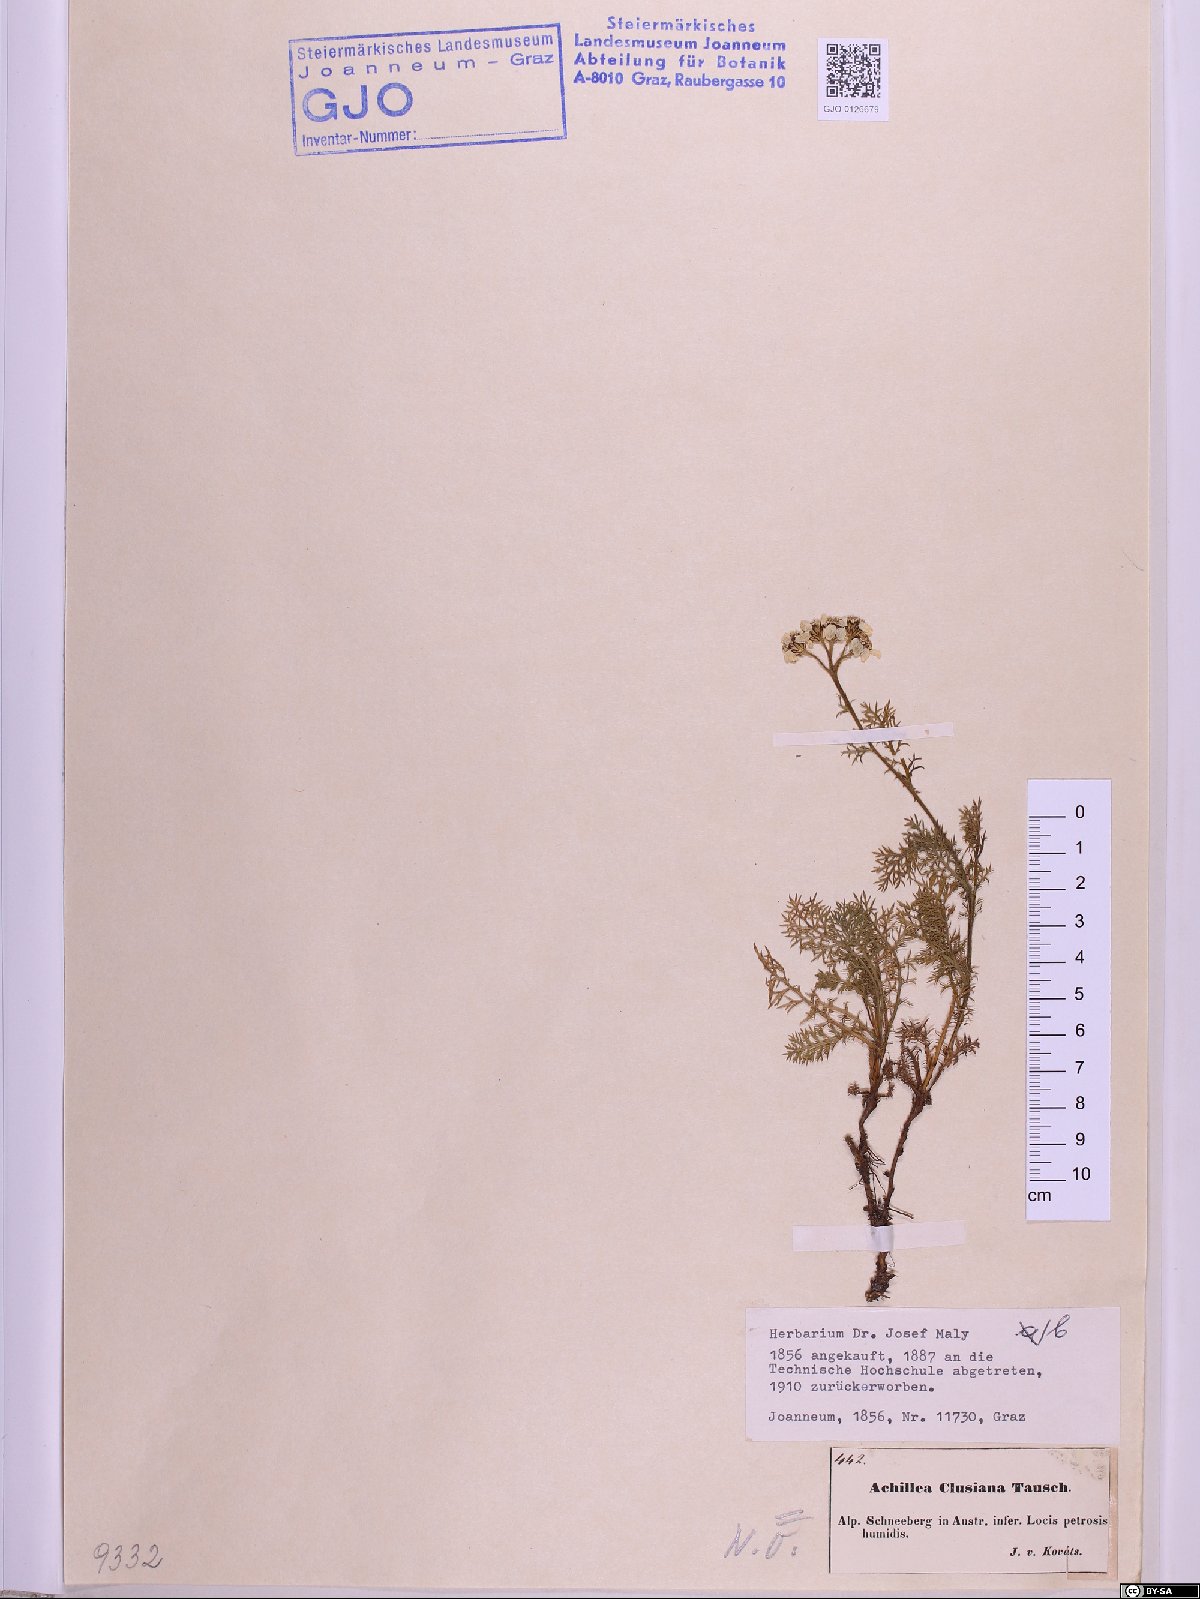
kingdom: Plantae
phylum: Tracheophyta
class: Magnoliopsida
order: Asterales
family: Asteraceae
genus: Achillea
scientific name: Achillea clusiana
